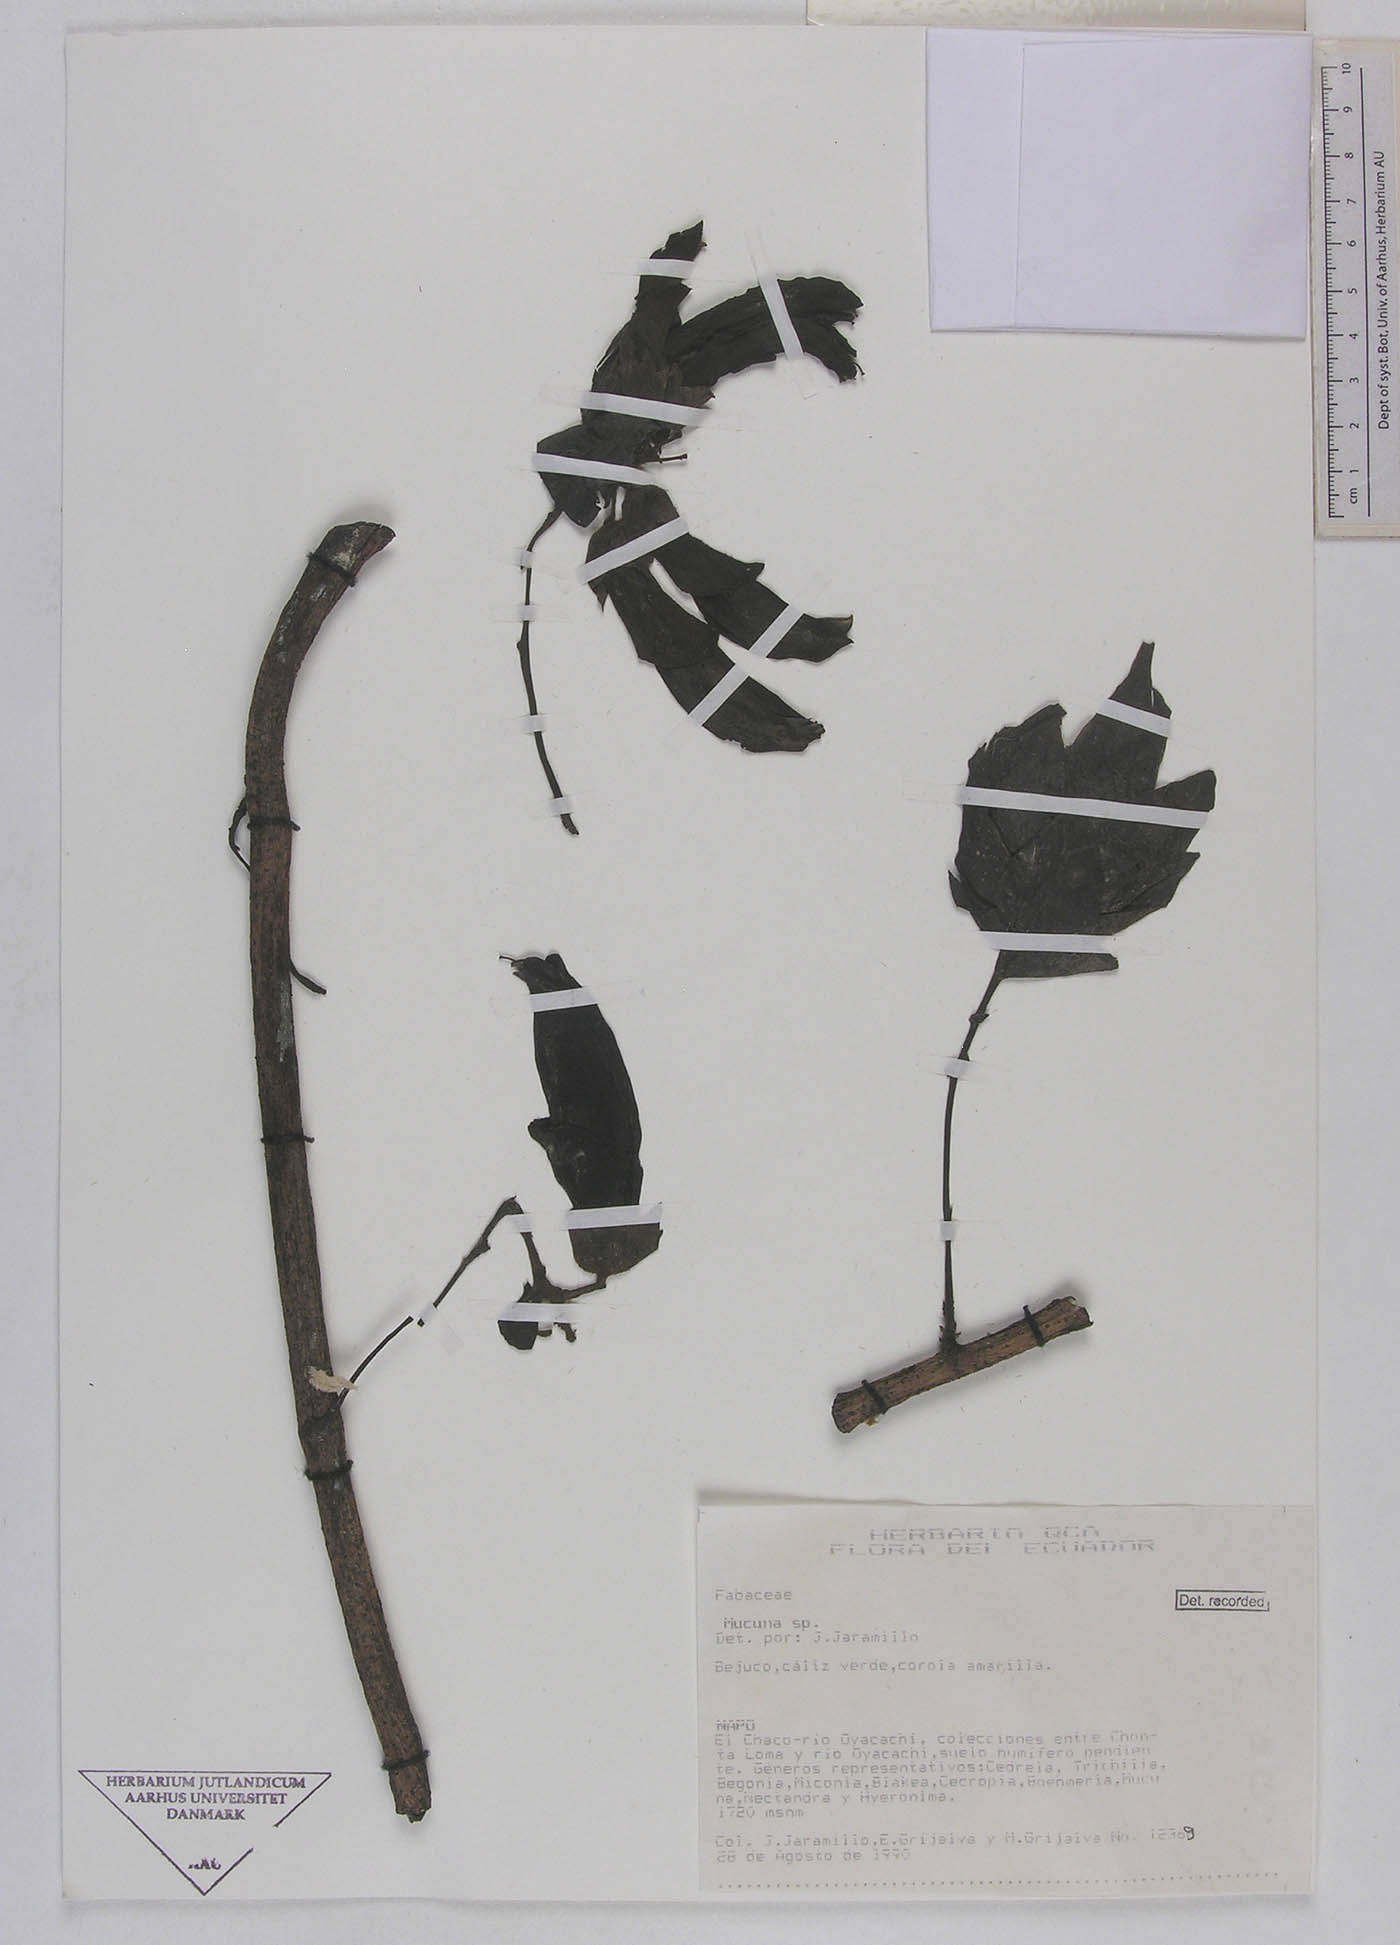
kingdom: Plantae
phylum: Tracheophyta
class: Magnoliopsida
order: Fabales
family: Fabaceae
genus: Mucuna
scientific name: Mucuna ecuatoriana
